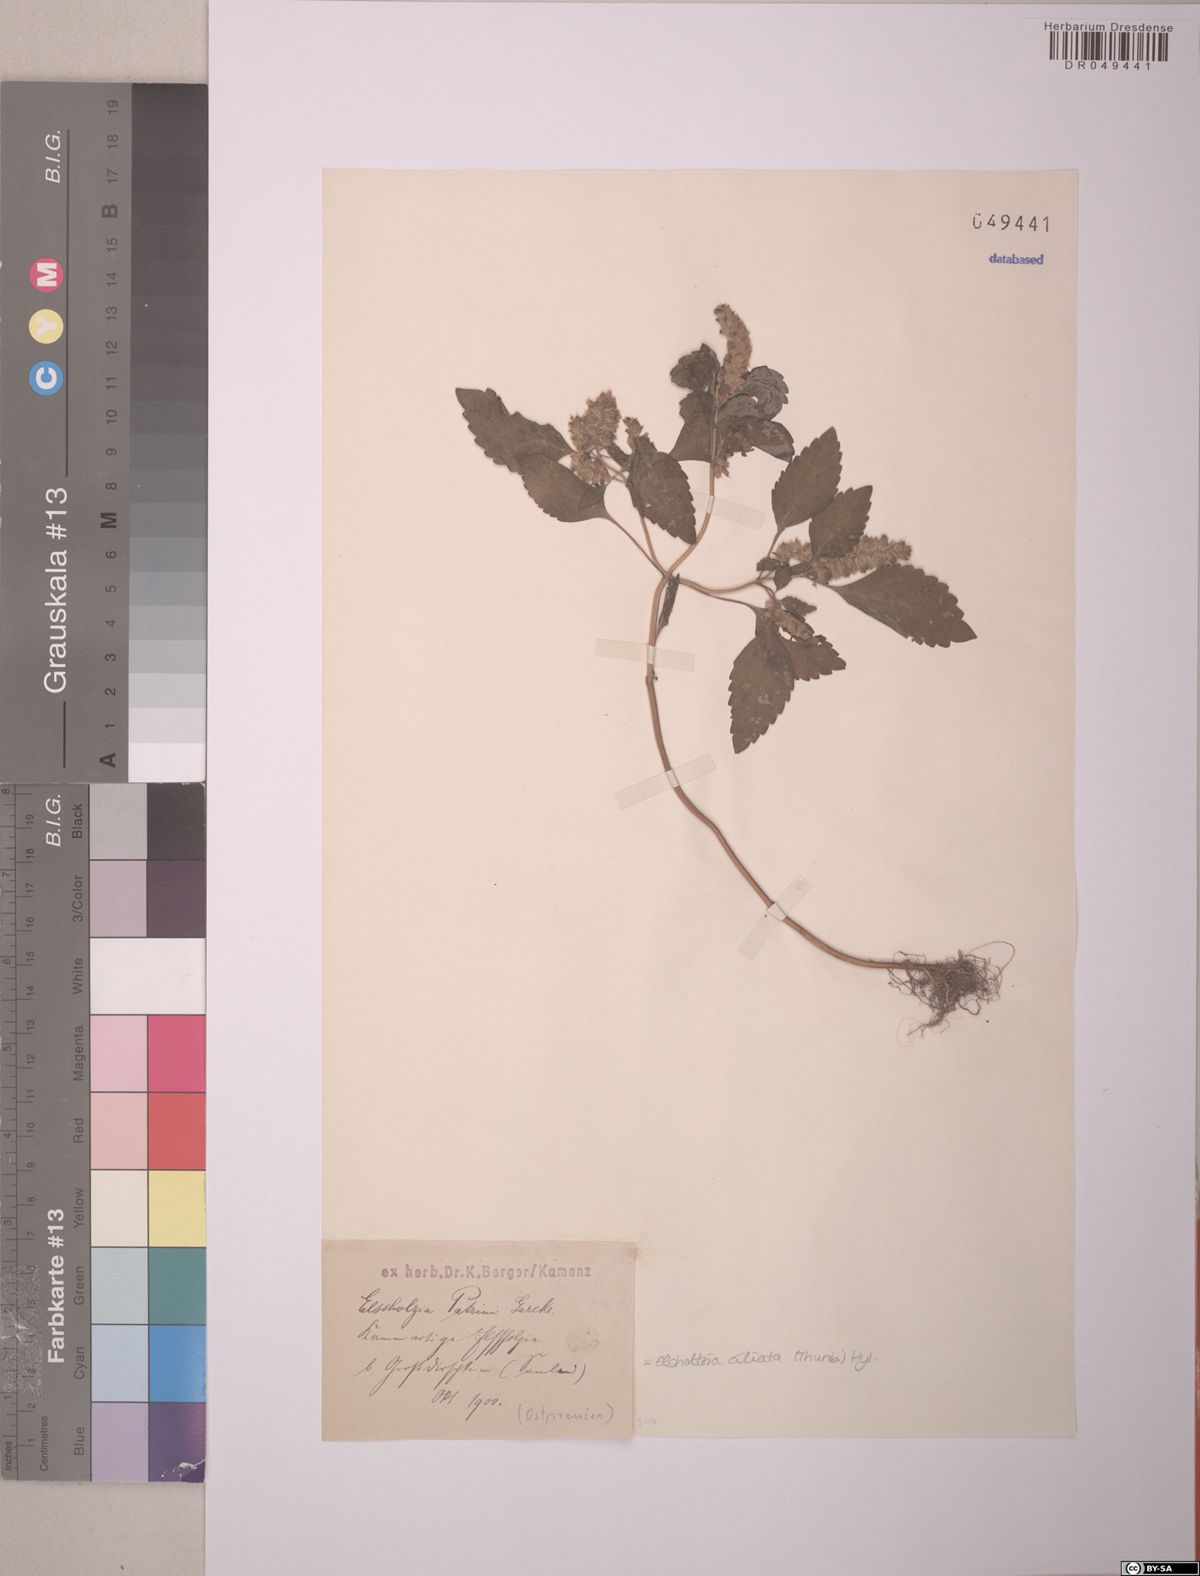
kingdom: Plantae
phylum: Tracheophyta
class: Magnoliopsida
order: Lamiales
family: Lamiaceae
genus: Elsholtzia
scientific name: Elsholtzia ciliata
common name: Ciliate elsholtzia
